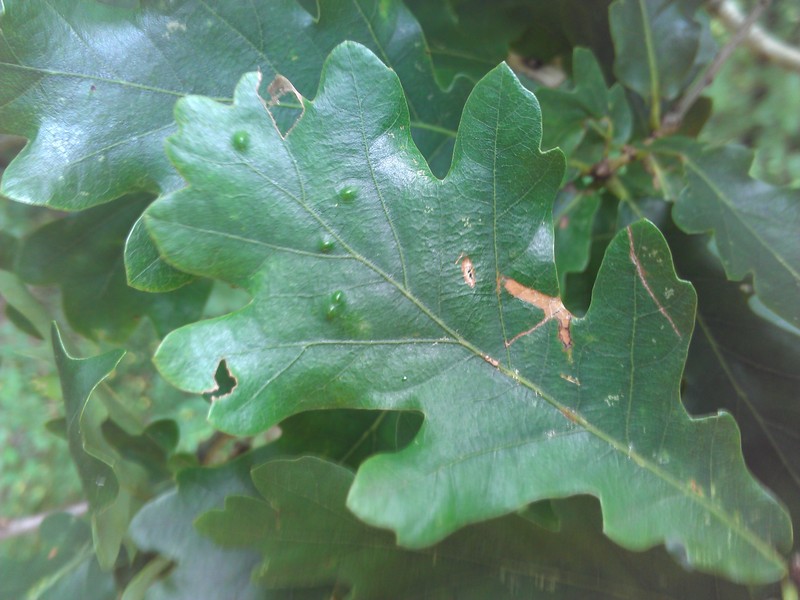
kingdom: Animalia
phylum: Arthropoda
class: Insecta
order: Hemiptera
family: Triozidae
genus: Trioza
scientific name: Trioza remota
